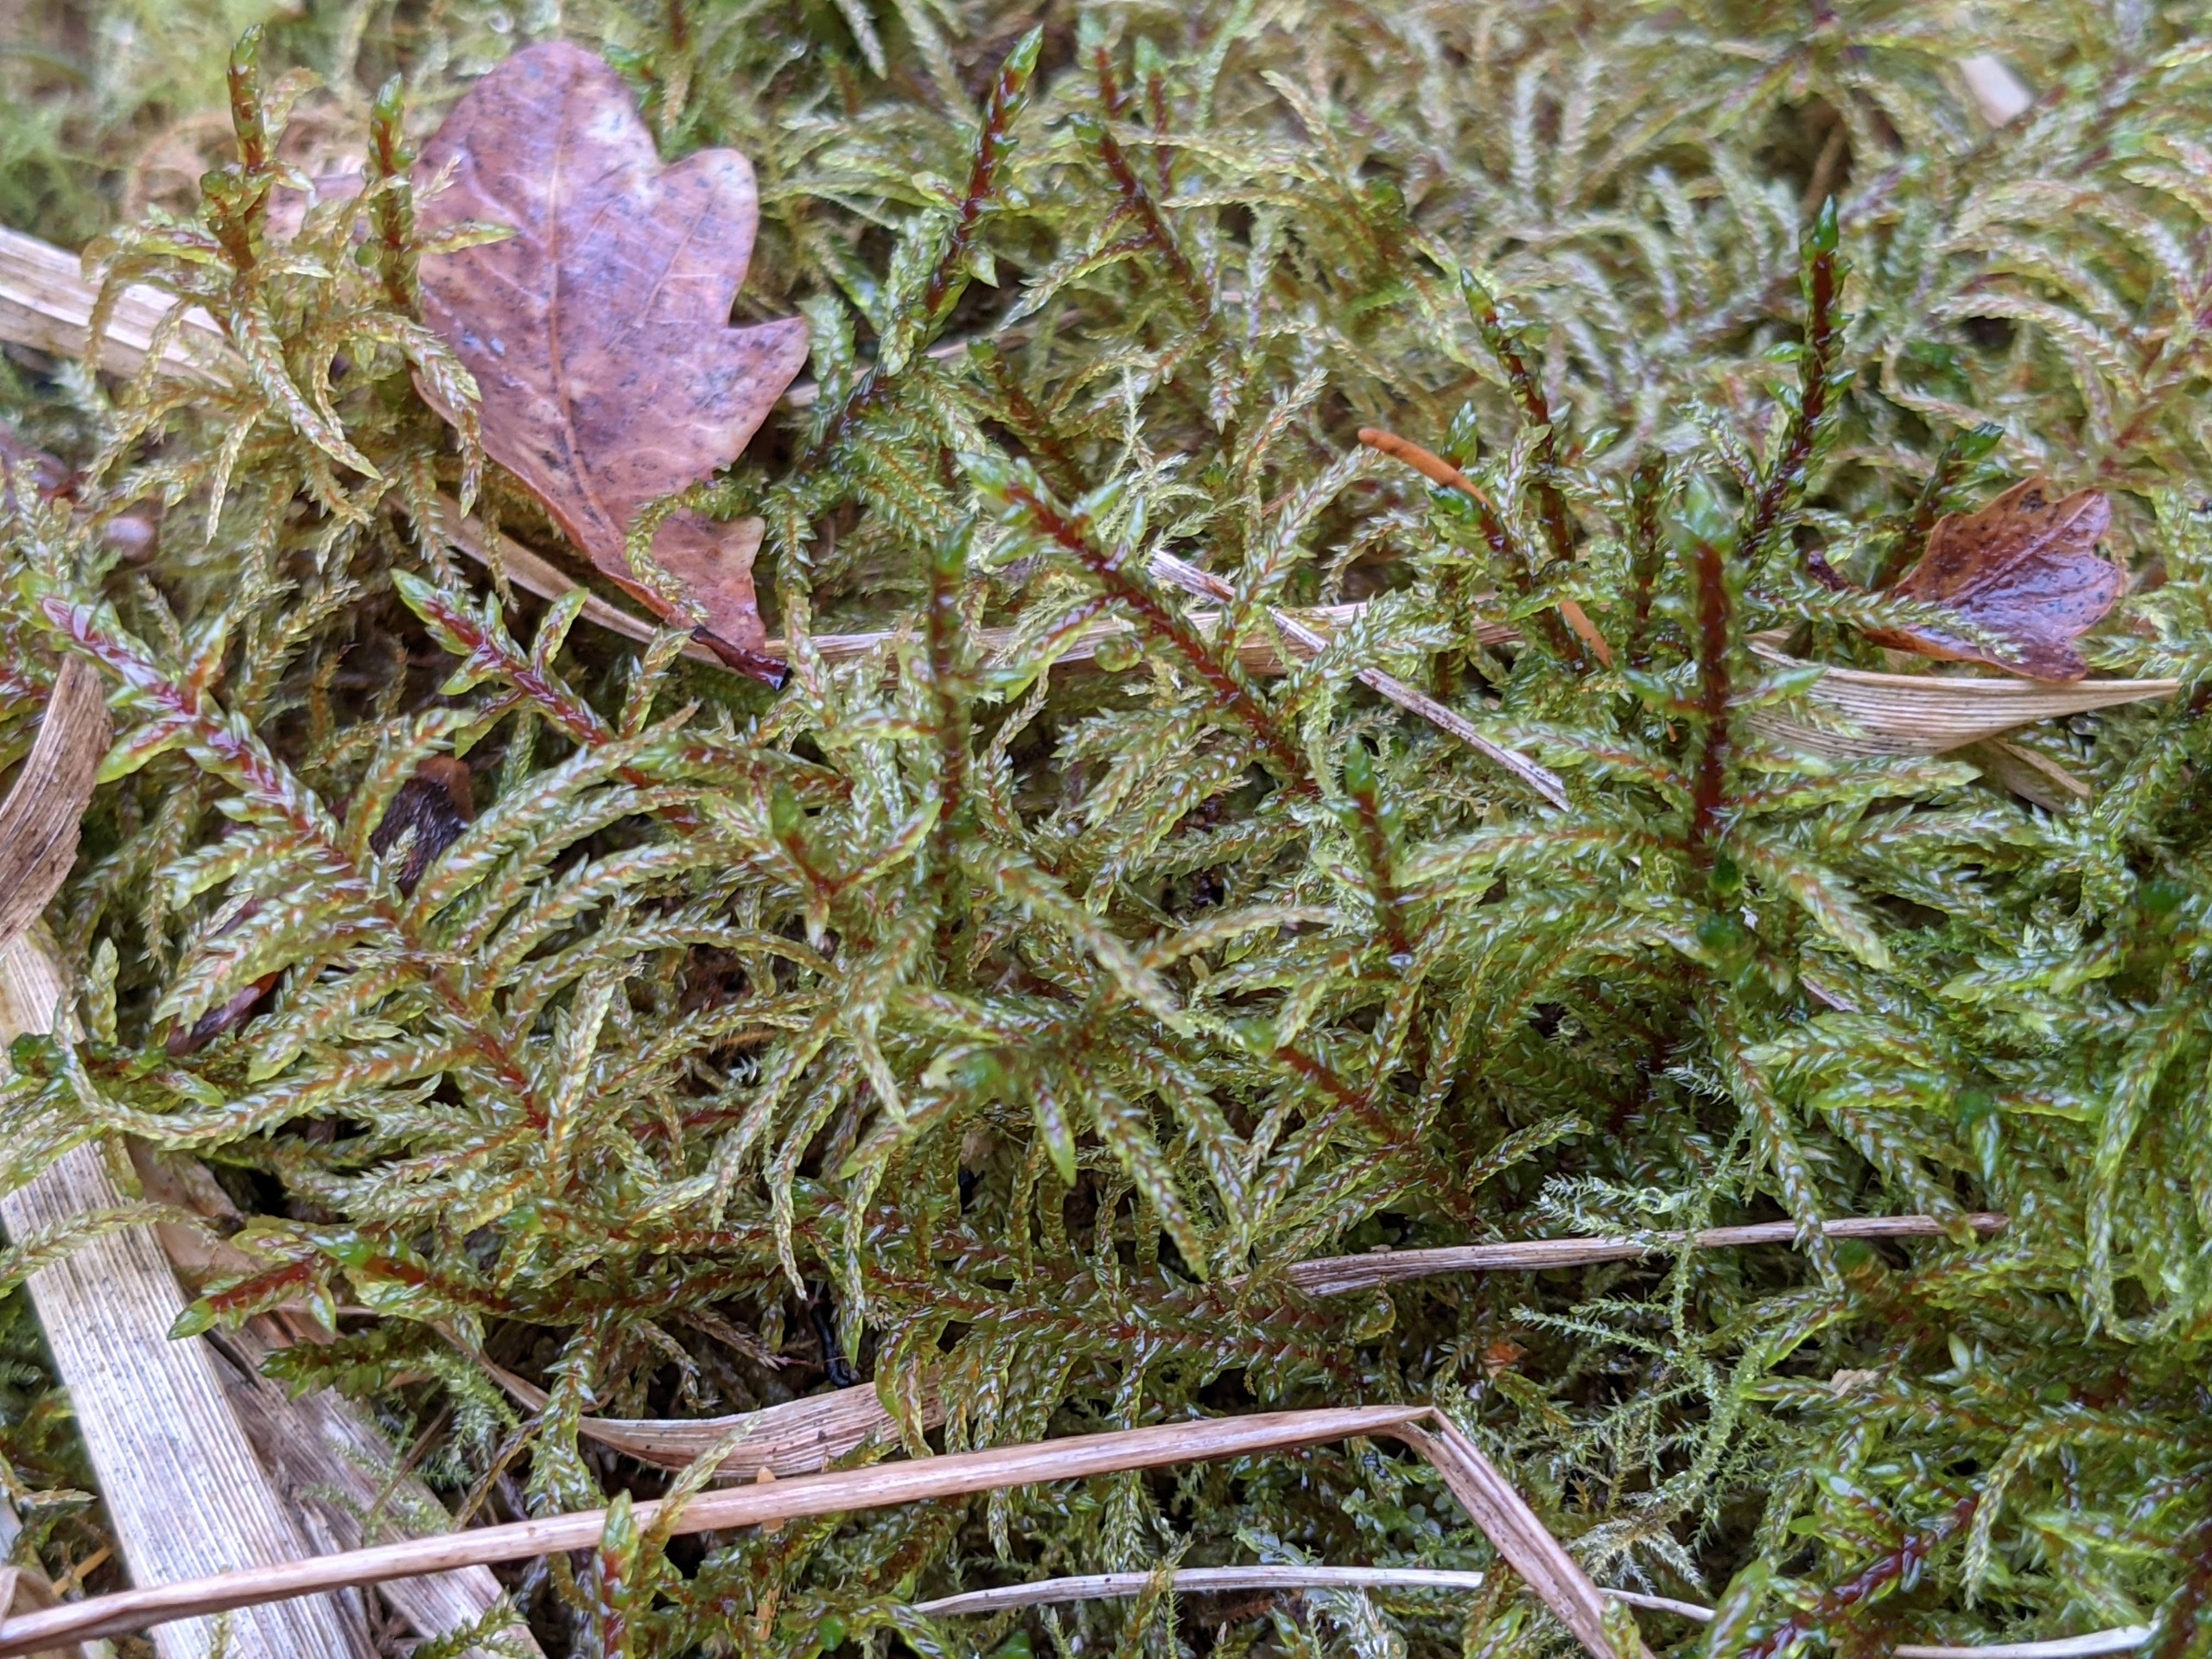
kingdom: Plantae
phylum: Bryophyta
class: Bryopsida
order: Hypnales
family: Hylocomiaceae
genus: Pleurozium
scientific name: Pleurozium schreberi
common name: Trind fyrremos
